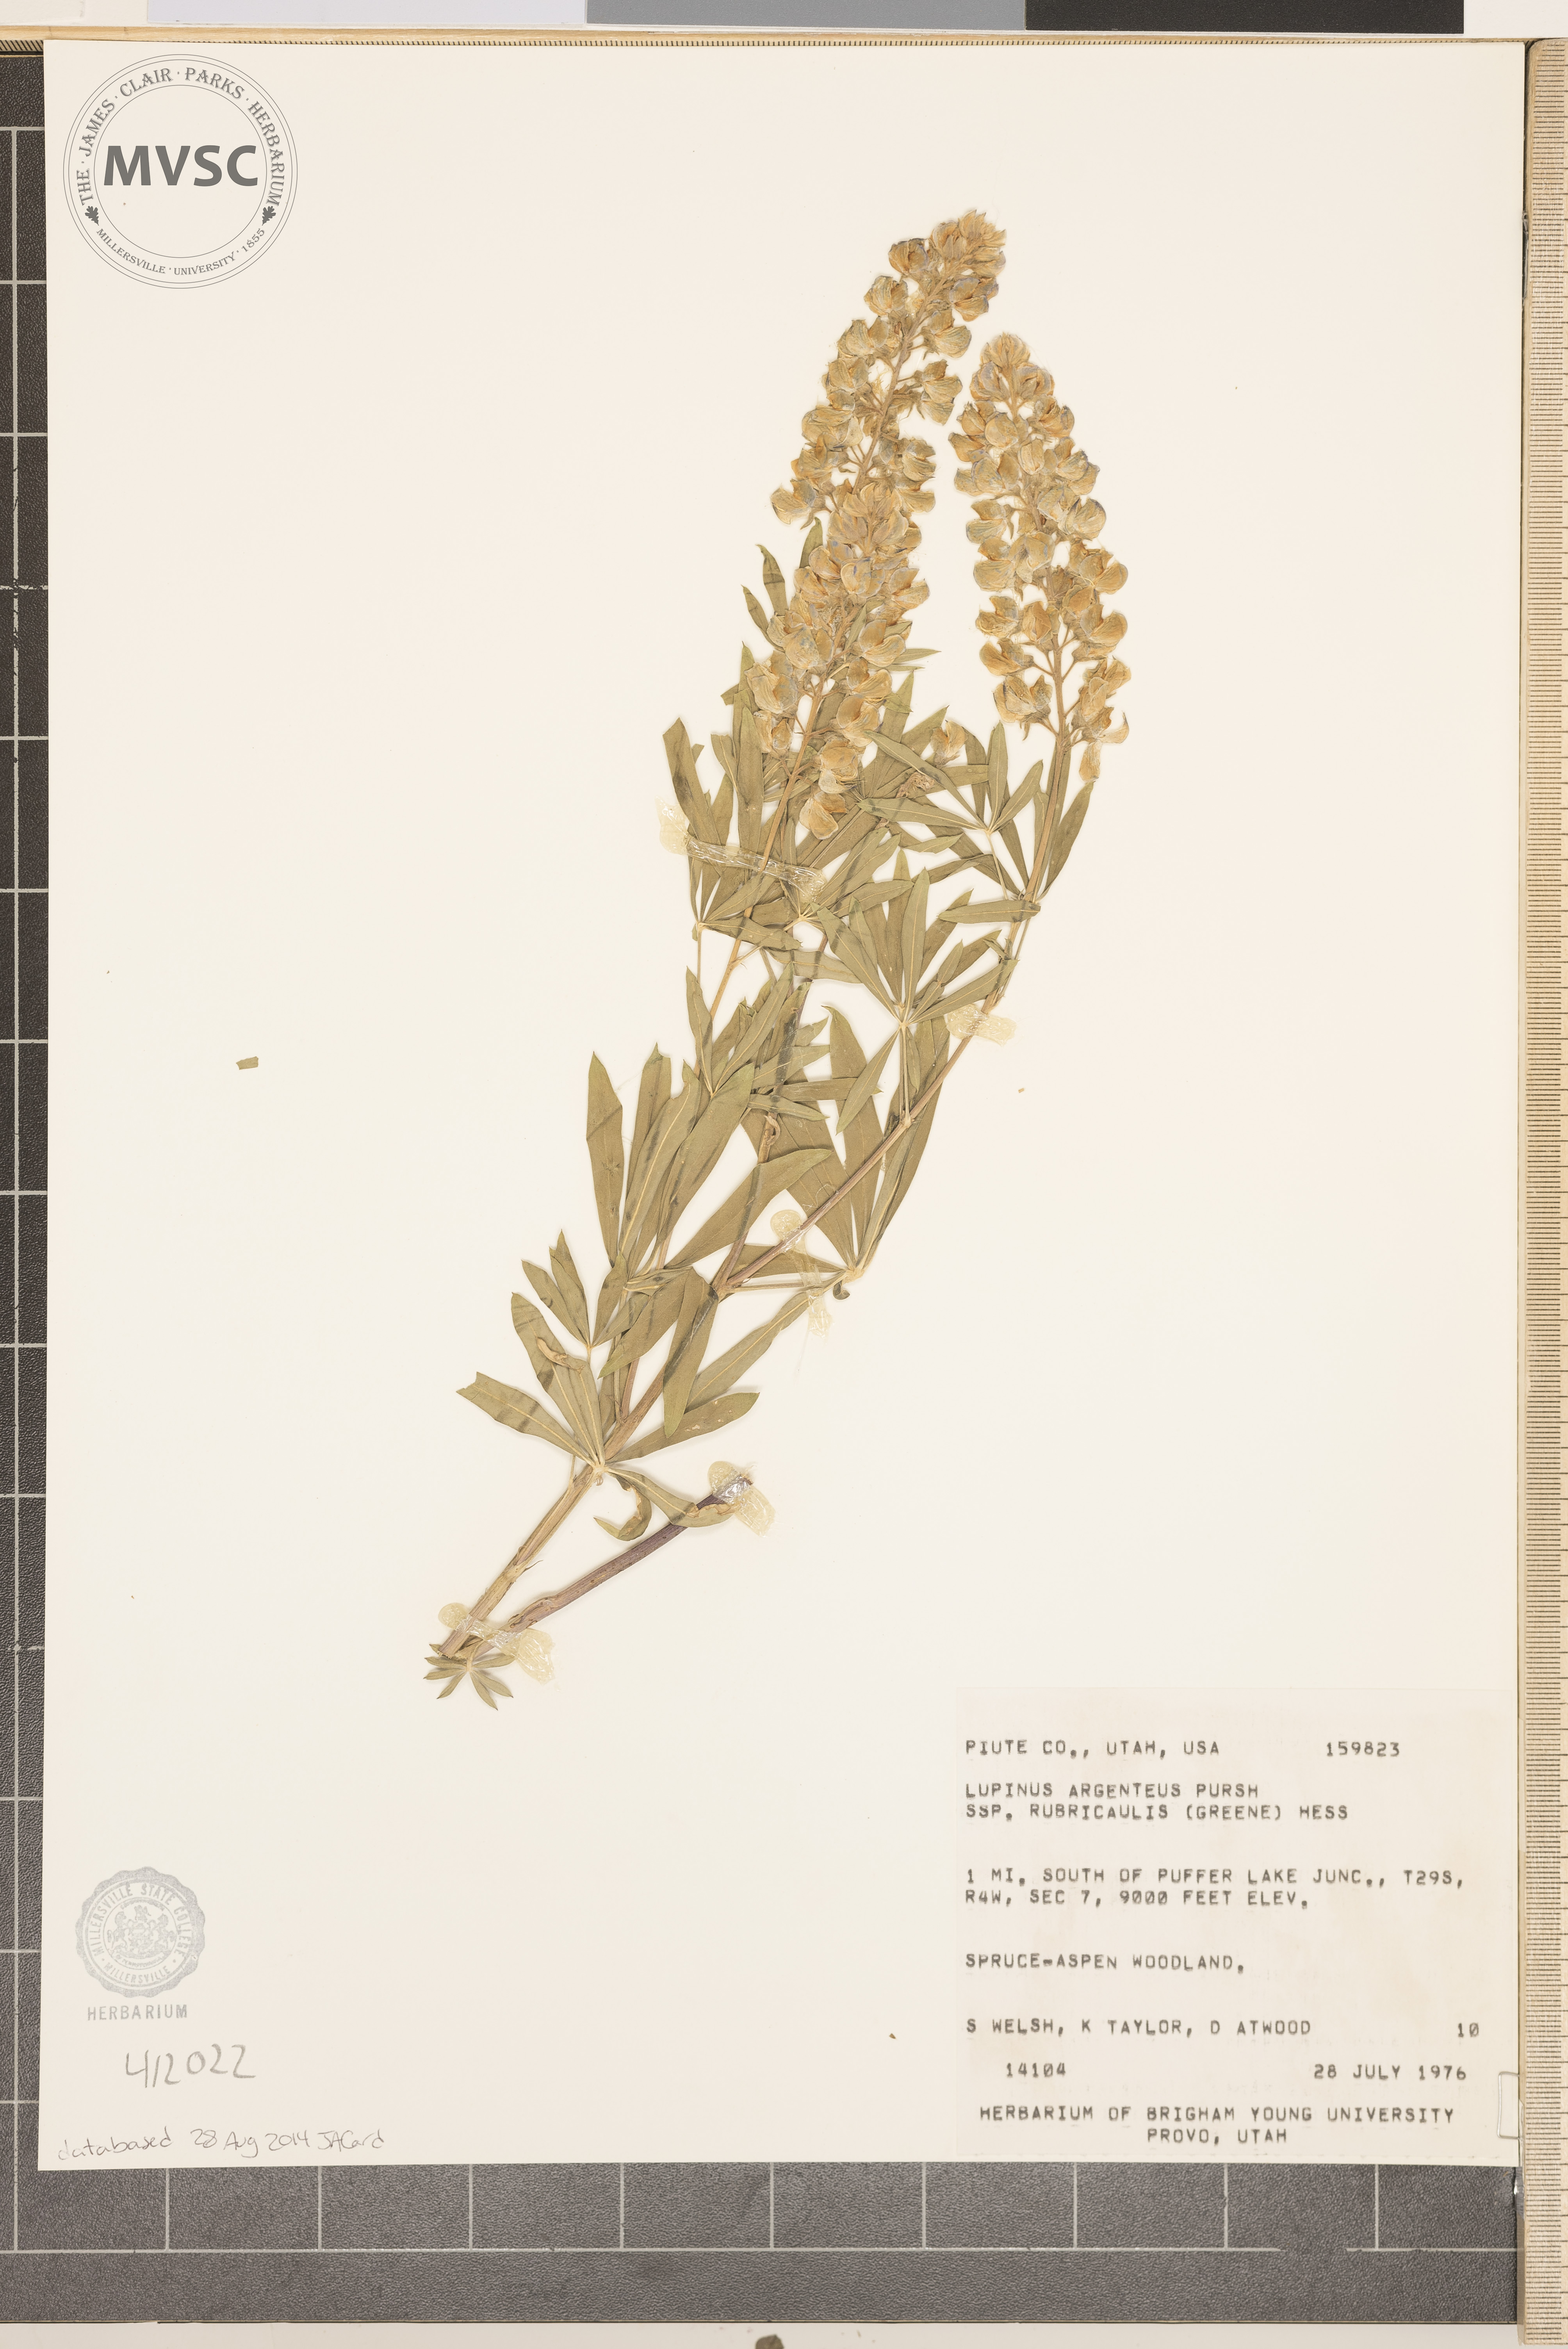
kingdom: Plantae
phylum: Tracheophyta
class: Magnoliopsida
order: Fabales
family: Fabaceae
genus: Lupinus
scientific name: Lupinus argenteus
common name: Silvery lupine
